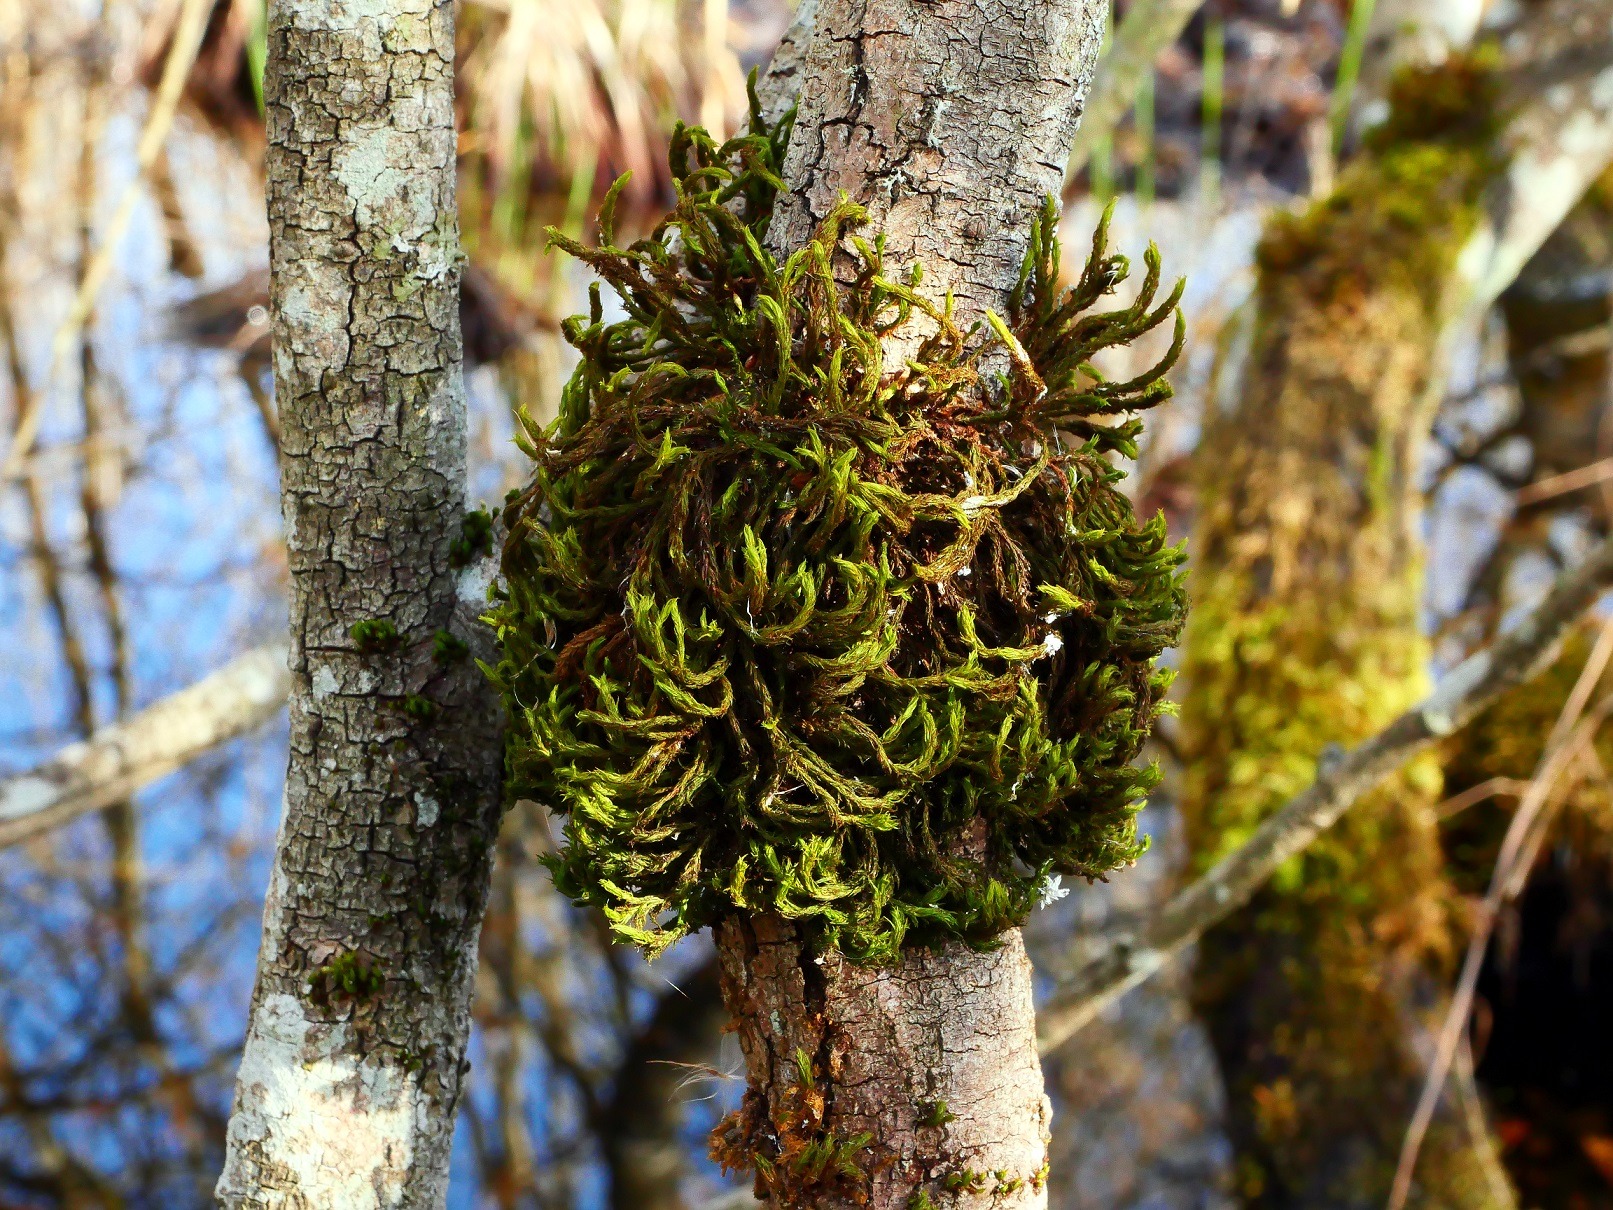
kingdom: Plantae
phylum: Bryophyta
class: Bryopsida
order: Orthotrichales
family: Orthotrichaceae
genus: Pulvigera
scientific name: Pulvigera lyellii
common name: Stor furehætte
